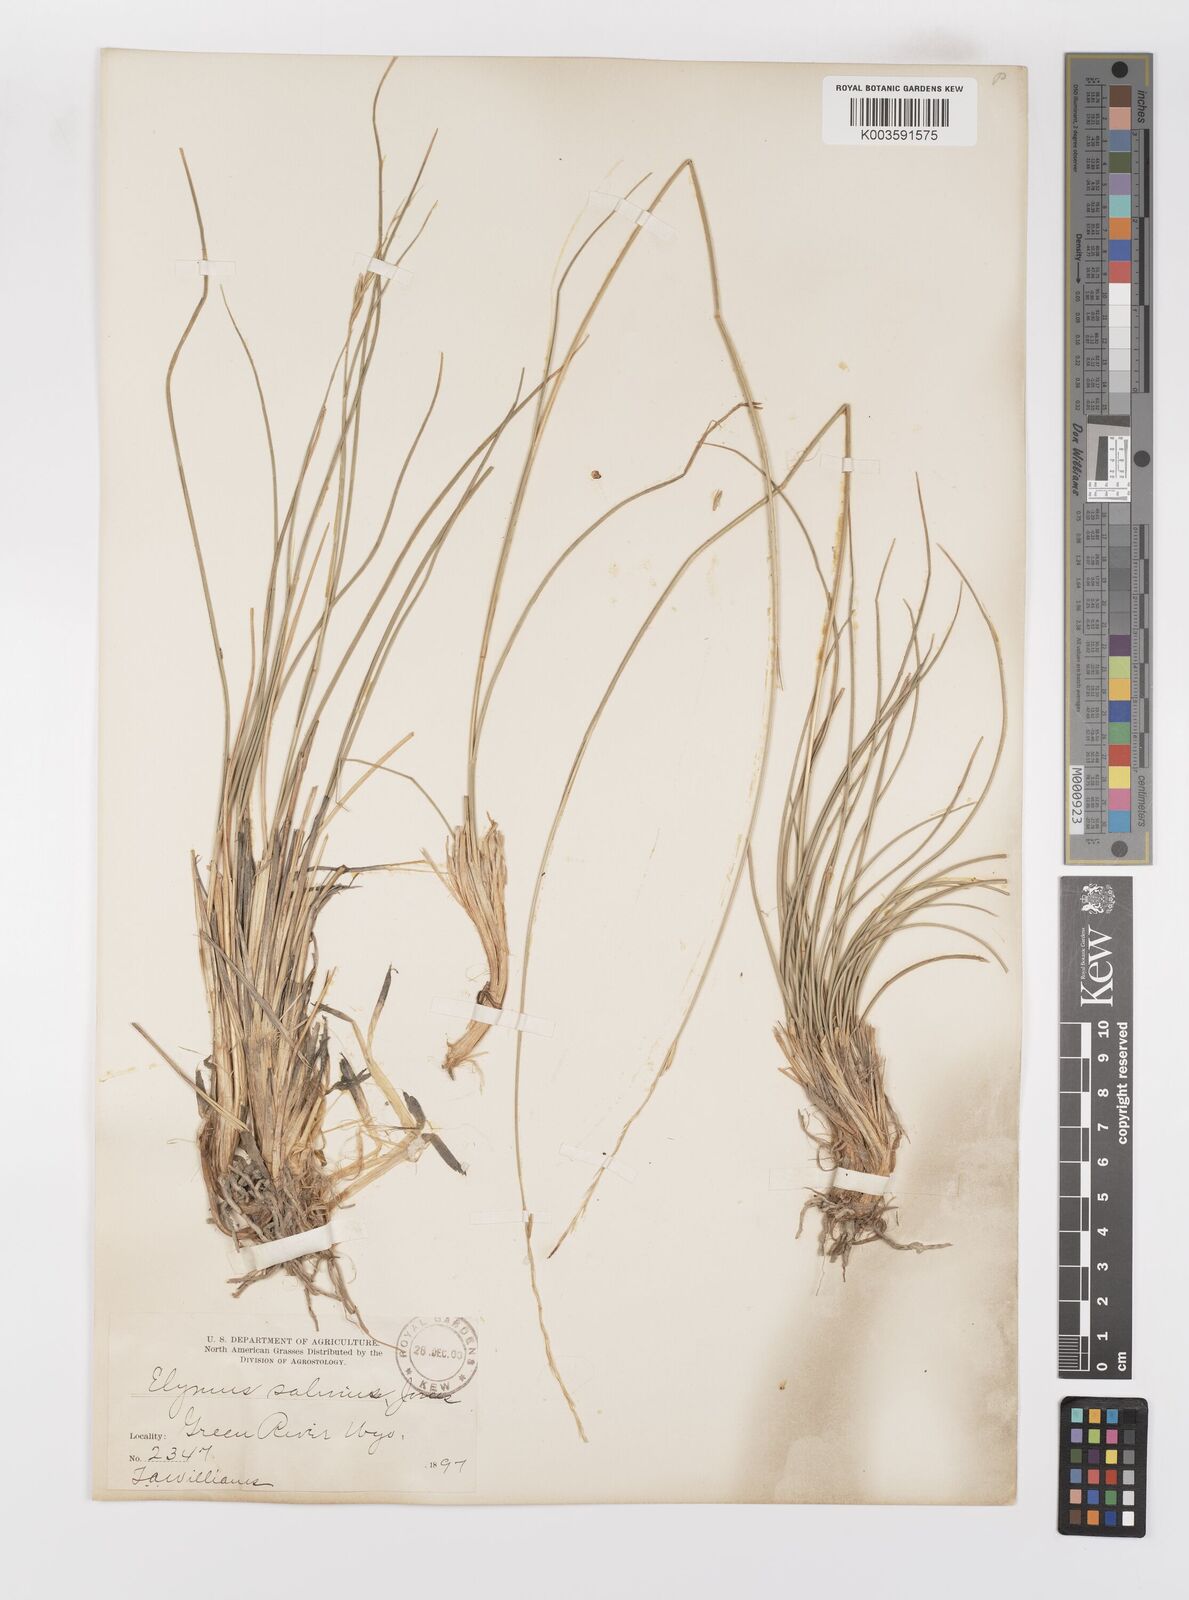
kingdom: Plantae
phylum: Tracheophyta
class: Liliopsida
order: Poales
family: Poaceae
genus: Leymus
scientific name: Leymus salina
